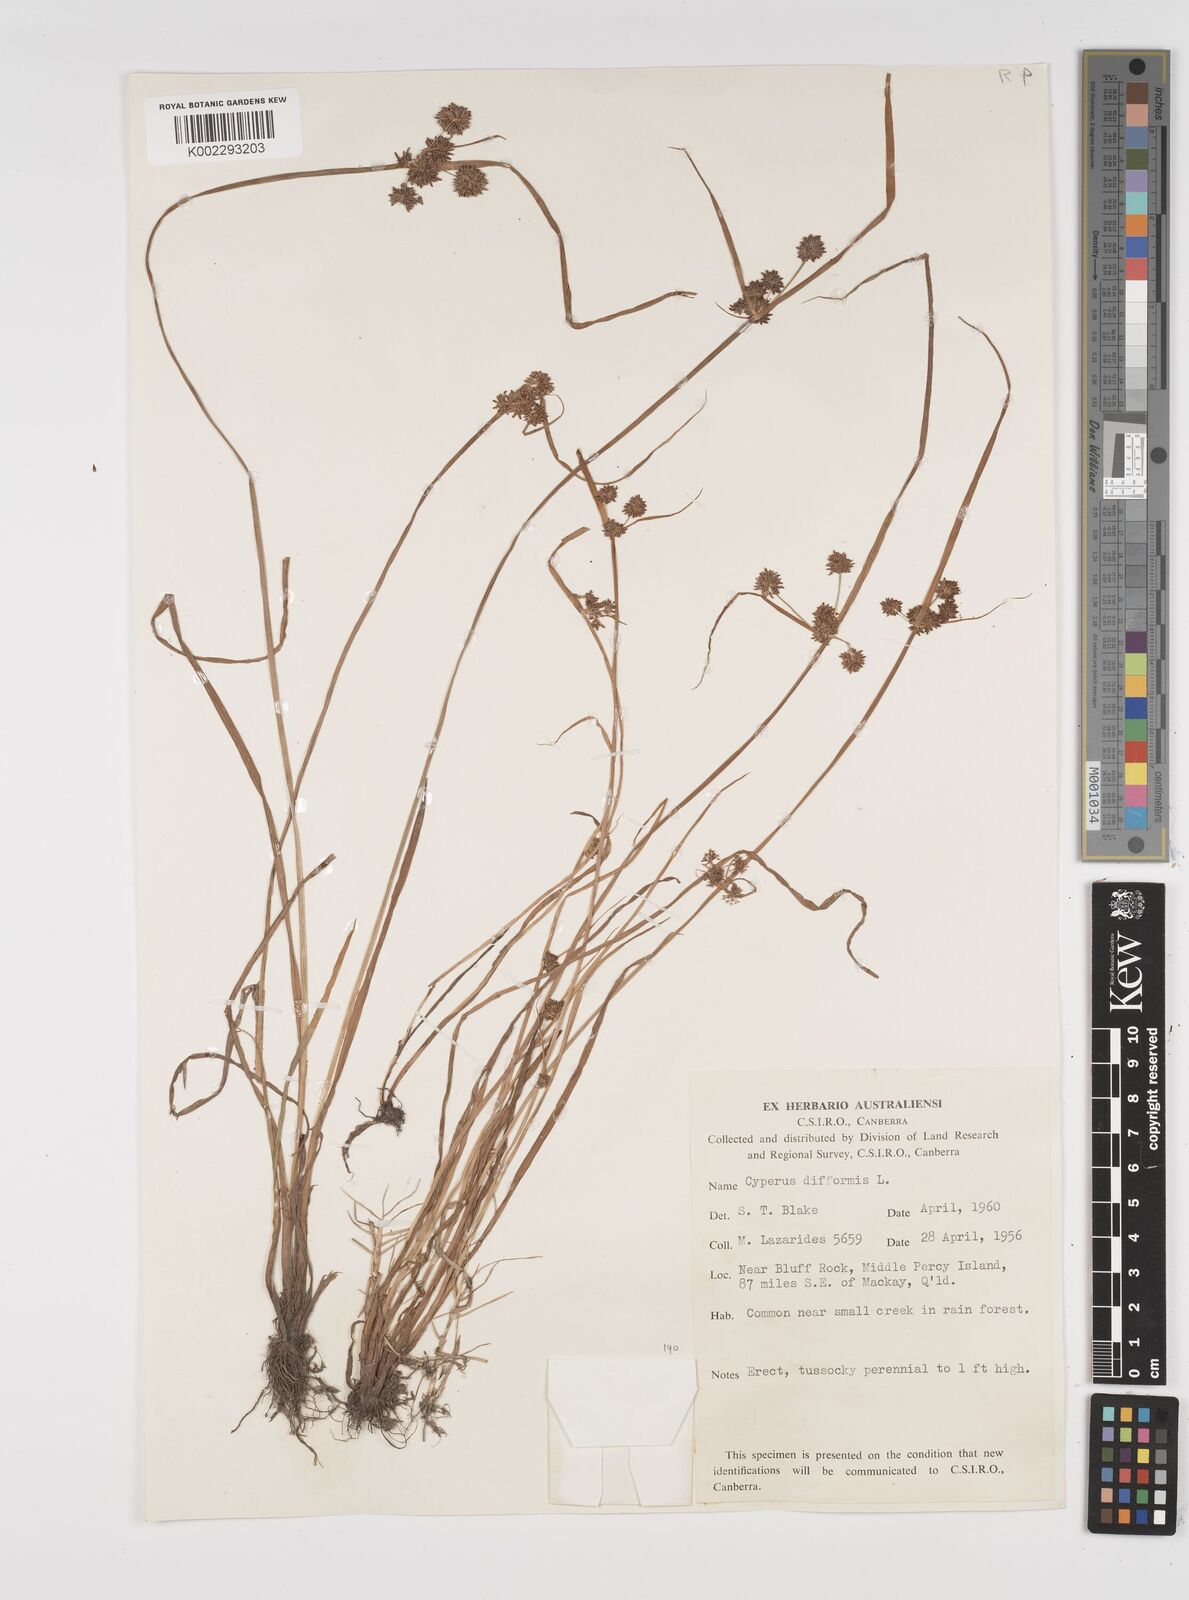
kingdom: Plantae
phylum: Tracheophyta
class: Liliopsida
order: Poales
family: Cyperaceae
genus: Cyperus
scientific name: Cyperus difformis
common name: Variable flatsedge
